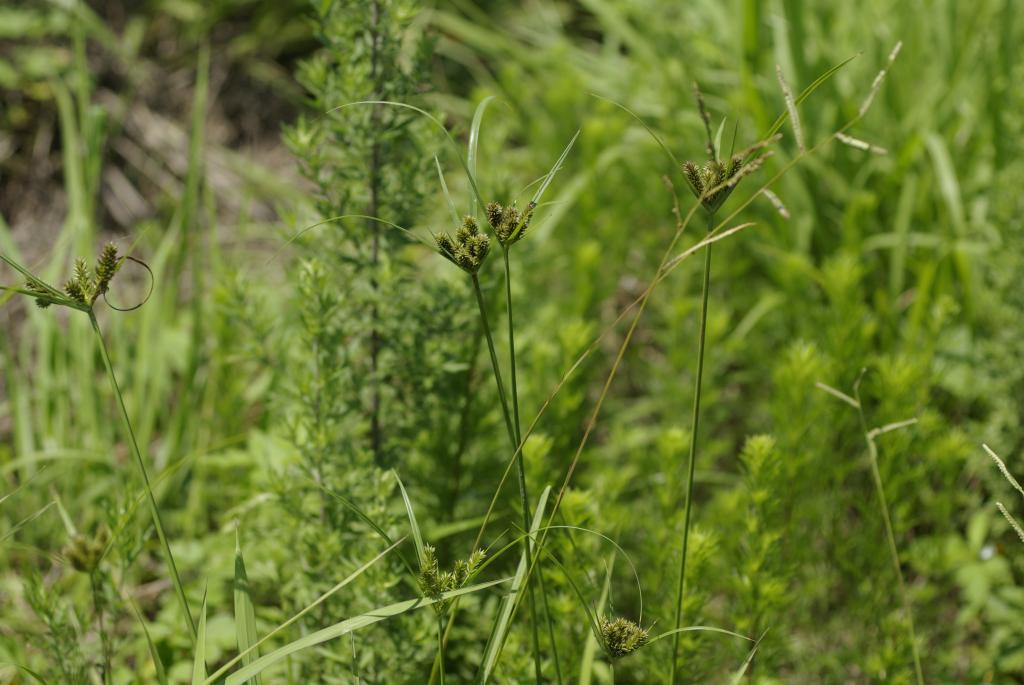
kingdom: Plantae
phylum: Tracheophyta
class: Liliopsida
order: Poales
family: Cyperaceae
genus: Cyperus
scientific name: Cyperus cyperinus
